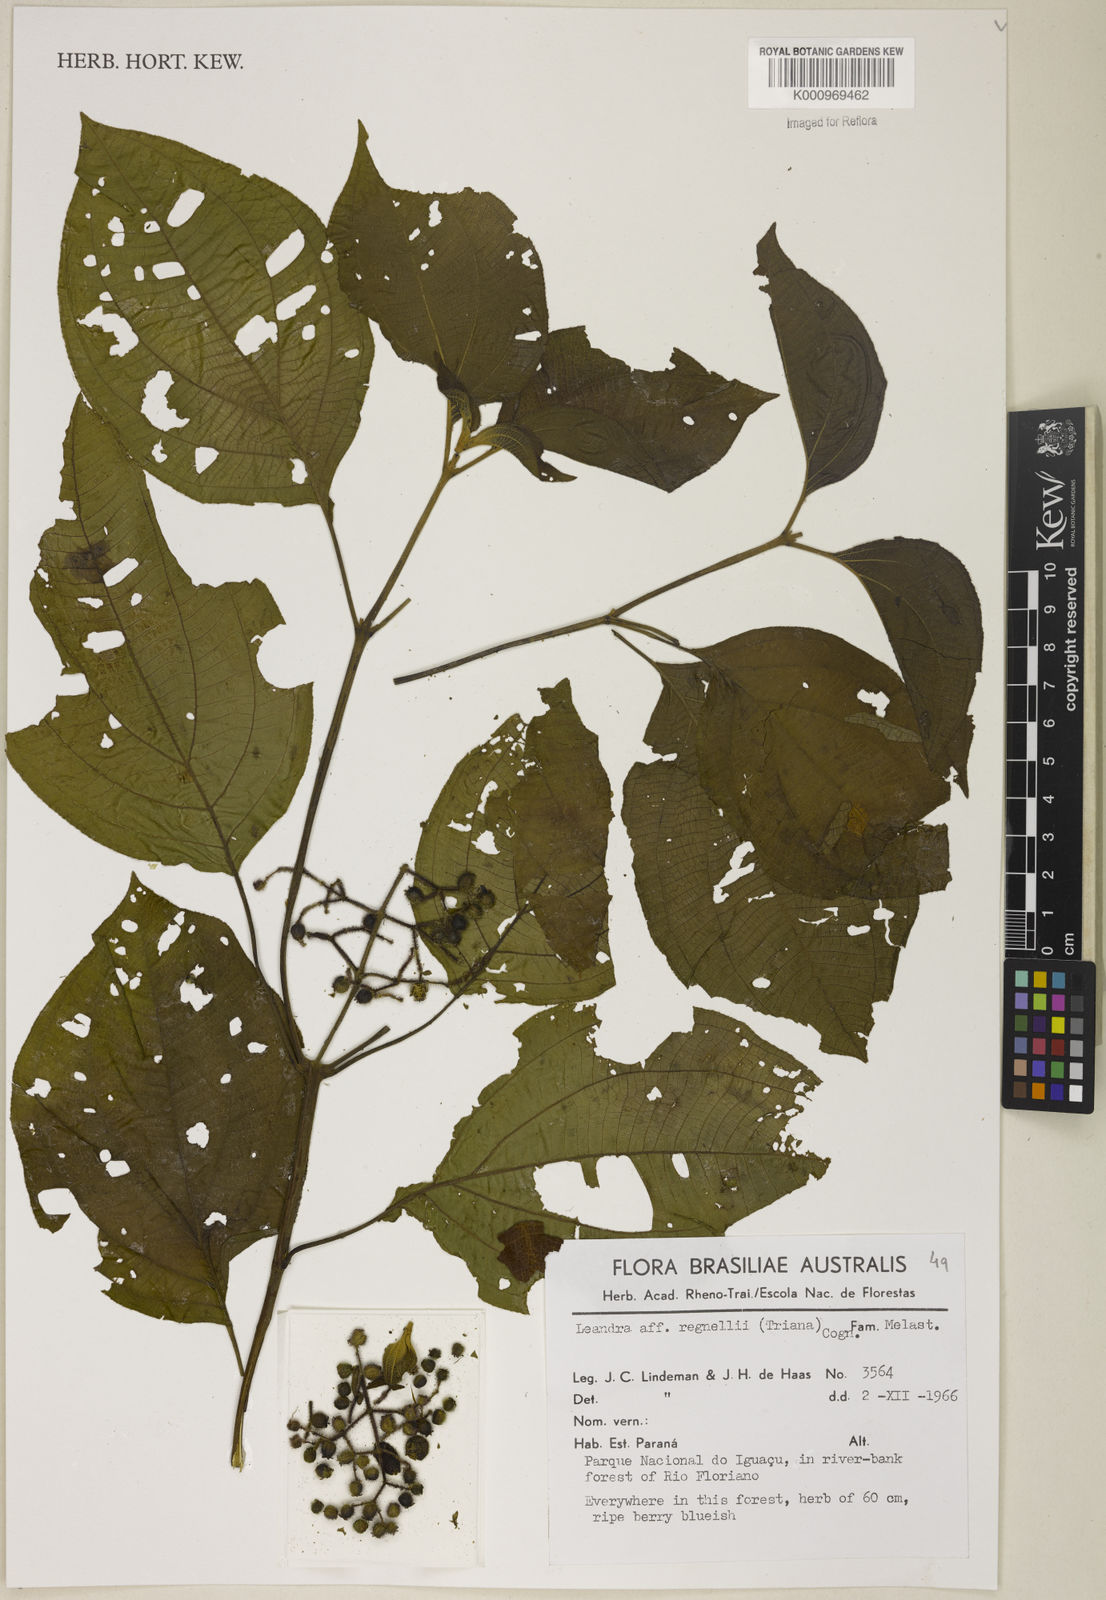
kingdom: Plantae
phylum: Tracheophyta
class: Magnoliopsida
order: Myrtales
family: Melastomataceae
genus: Miconia
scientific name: Miconia alterninervia
